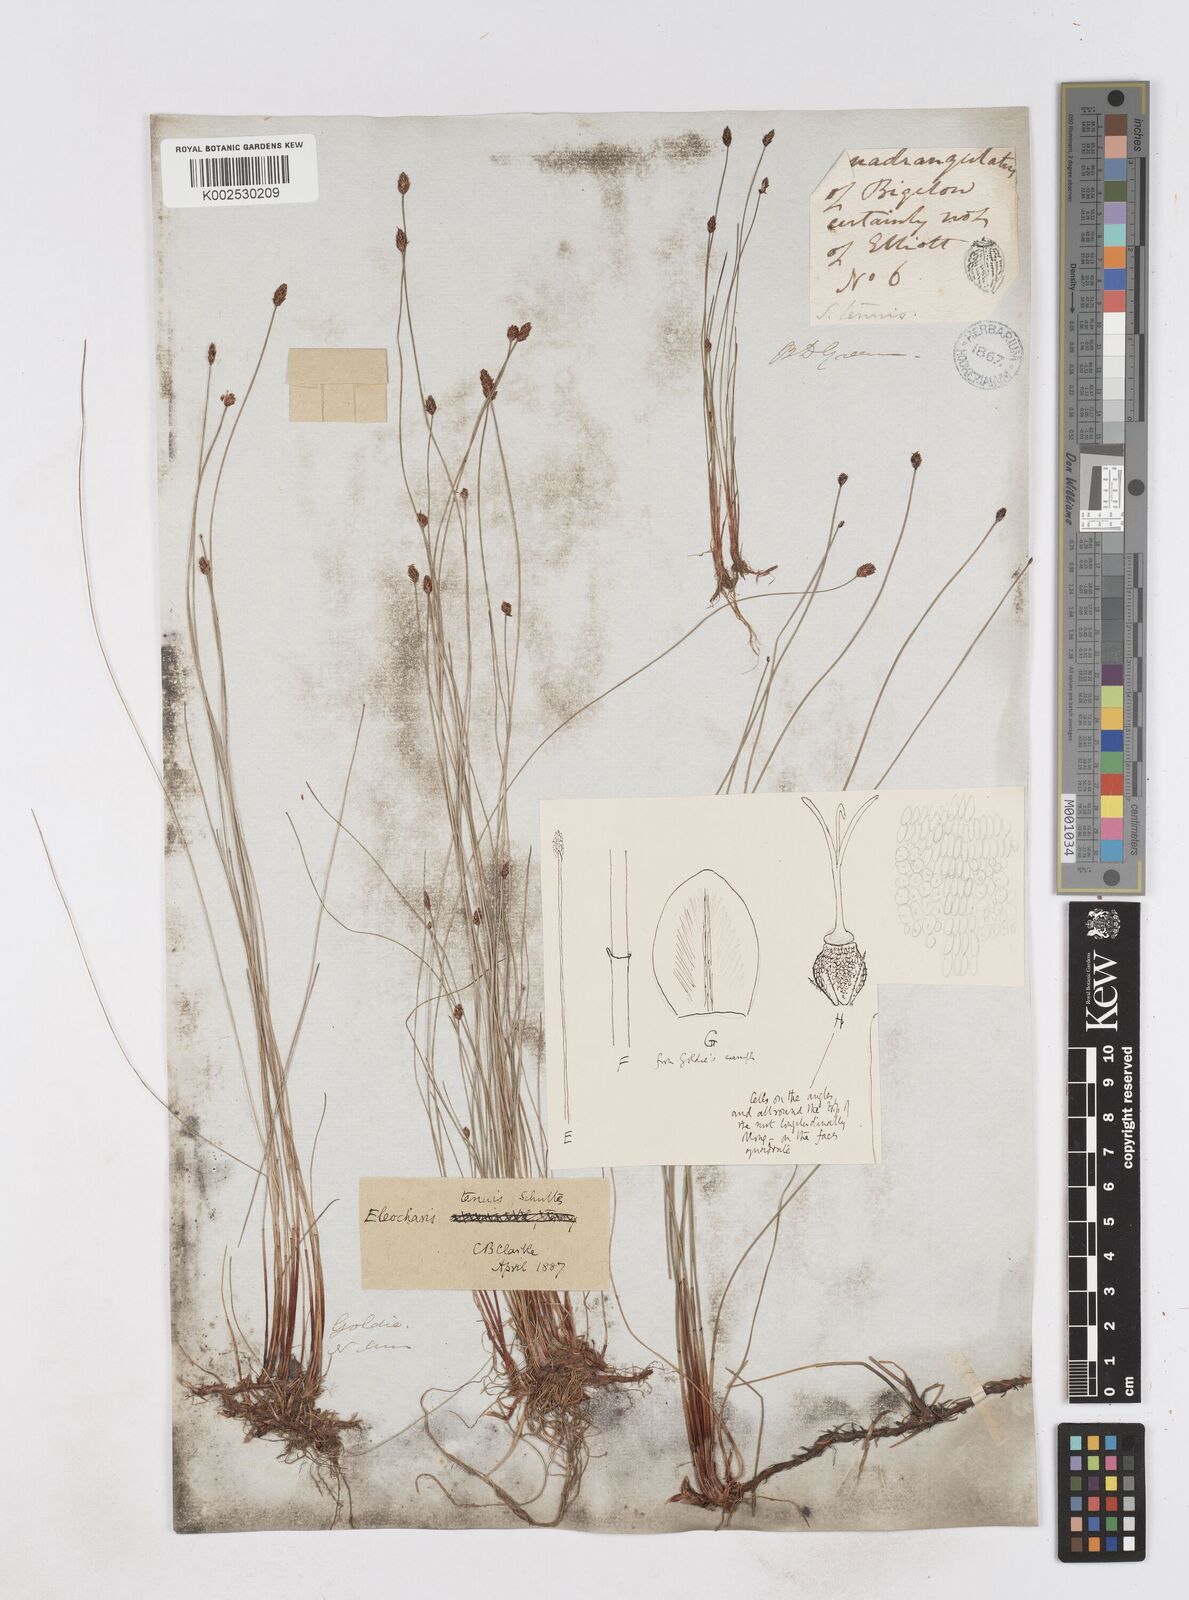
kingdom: Plantae
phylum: Tracheophyta
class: Liliopsida
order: Poales
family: Cyperaceae
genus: Eleocharis
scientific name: Eleocharis tenuis
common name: Dog's hair
